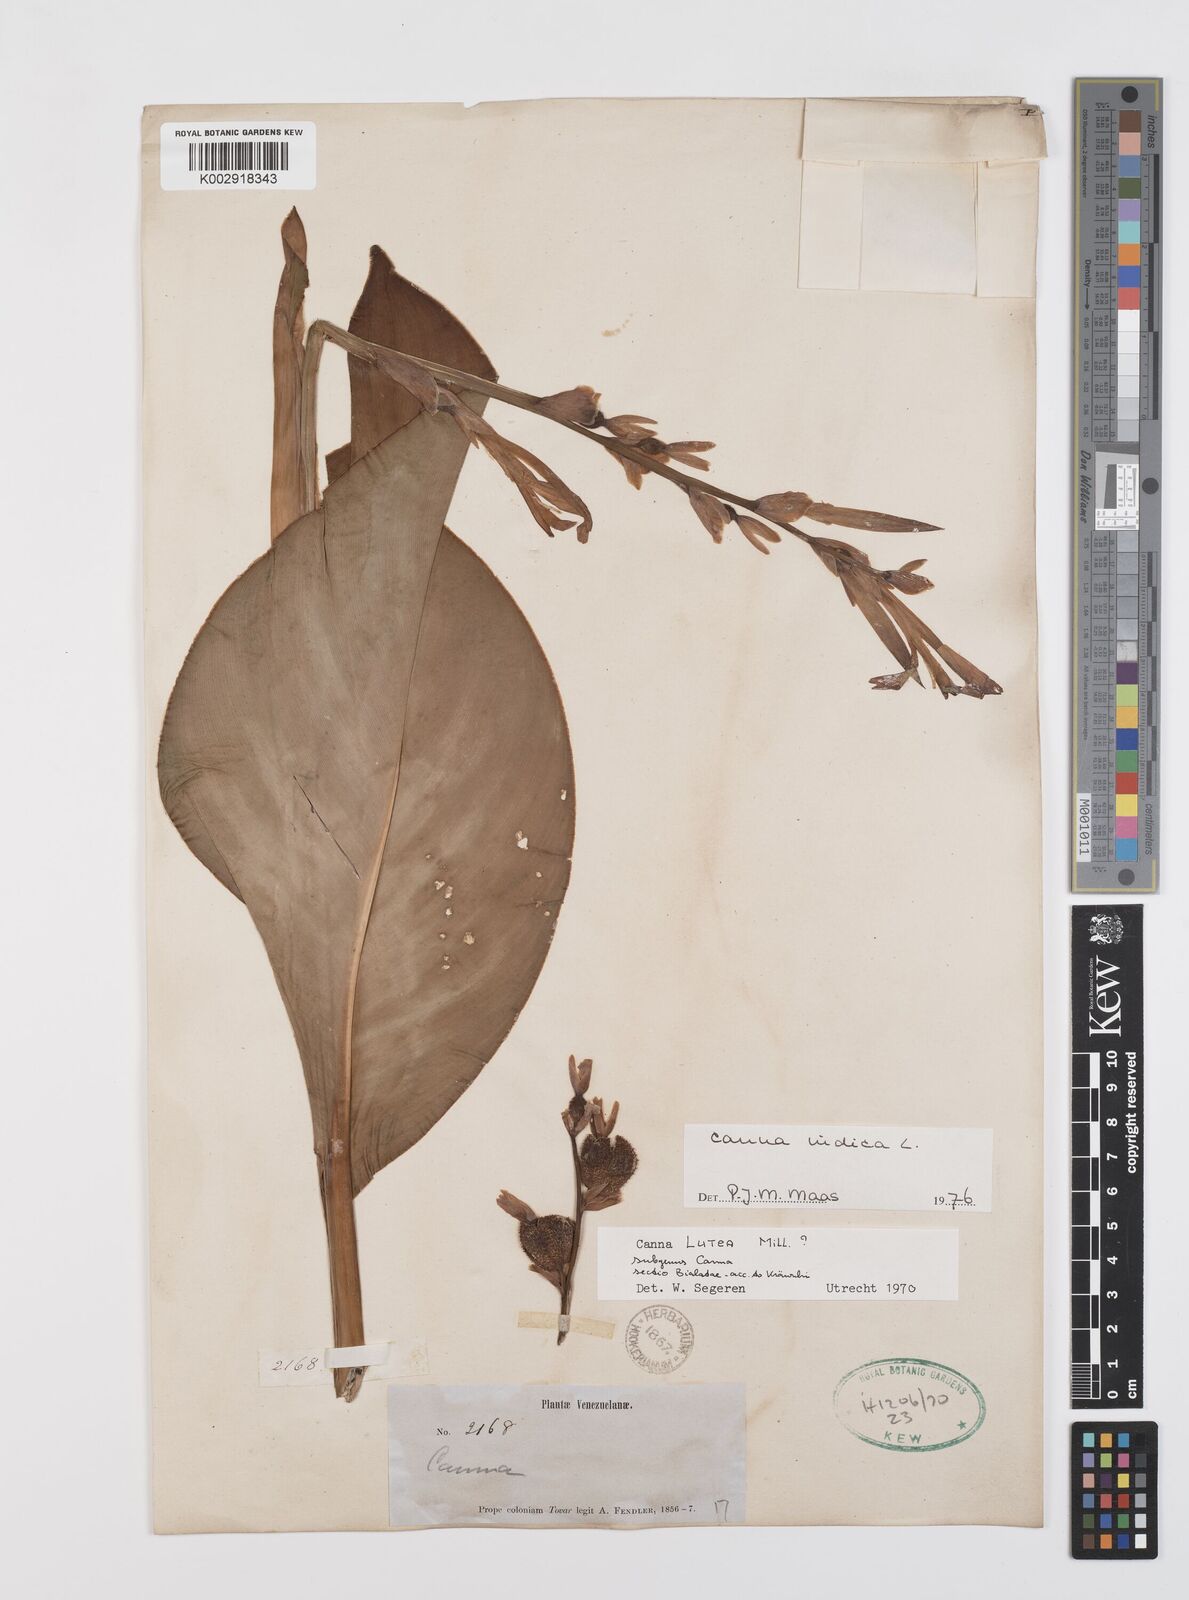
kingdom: Plantae
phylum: Tracheophyta
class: Liliopsida
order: Zingiberales
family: Cannaceae
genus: Canna
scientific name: Canna indica
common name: Indian shot
